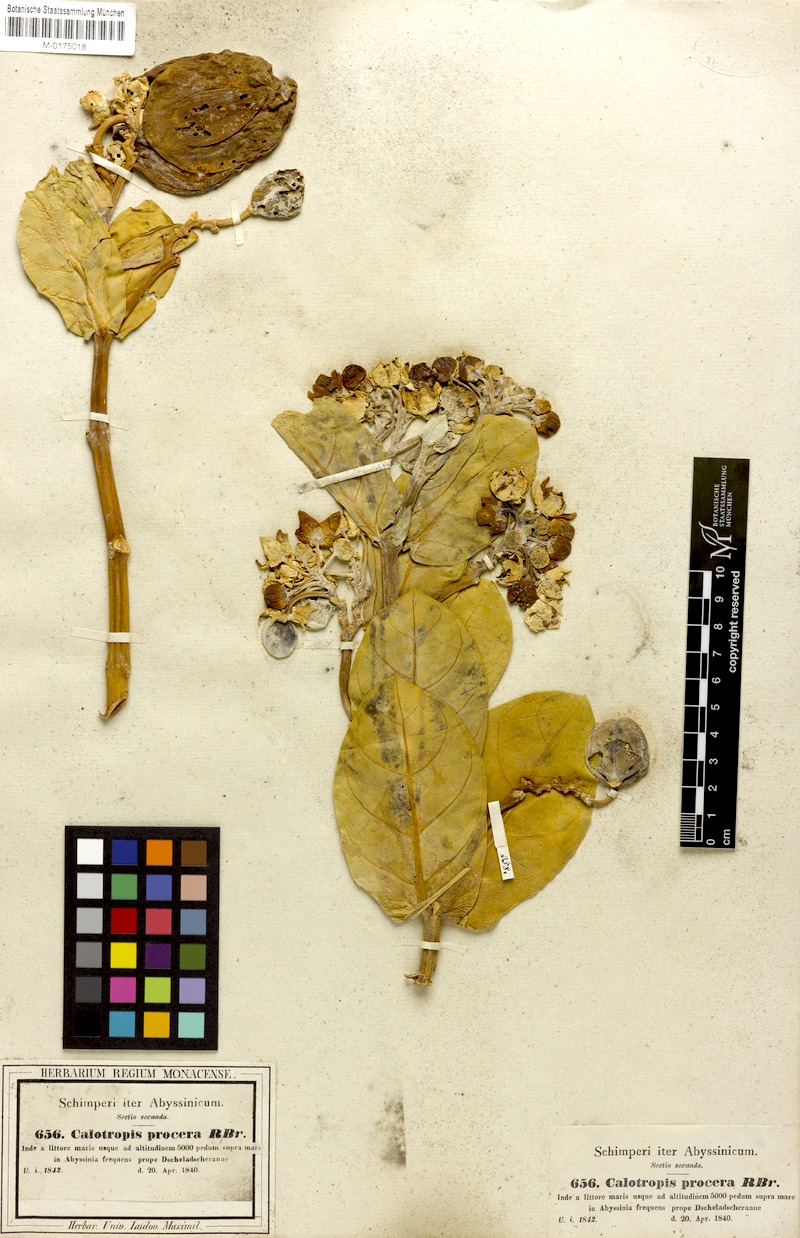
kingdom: Plantae
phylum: Tracheophyta
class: Magnoliopsida
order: Gentianales
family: Apocynaceae
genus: Calotropis
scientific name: Calotropis procera
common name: Roostertree
